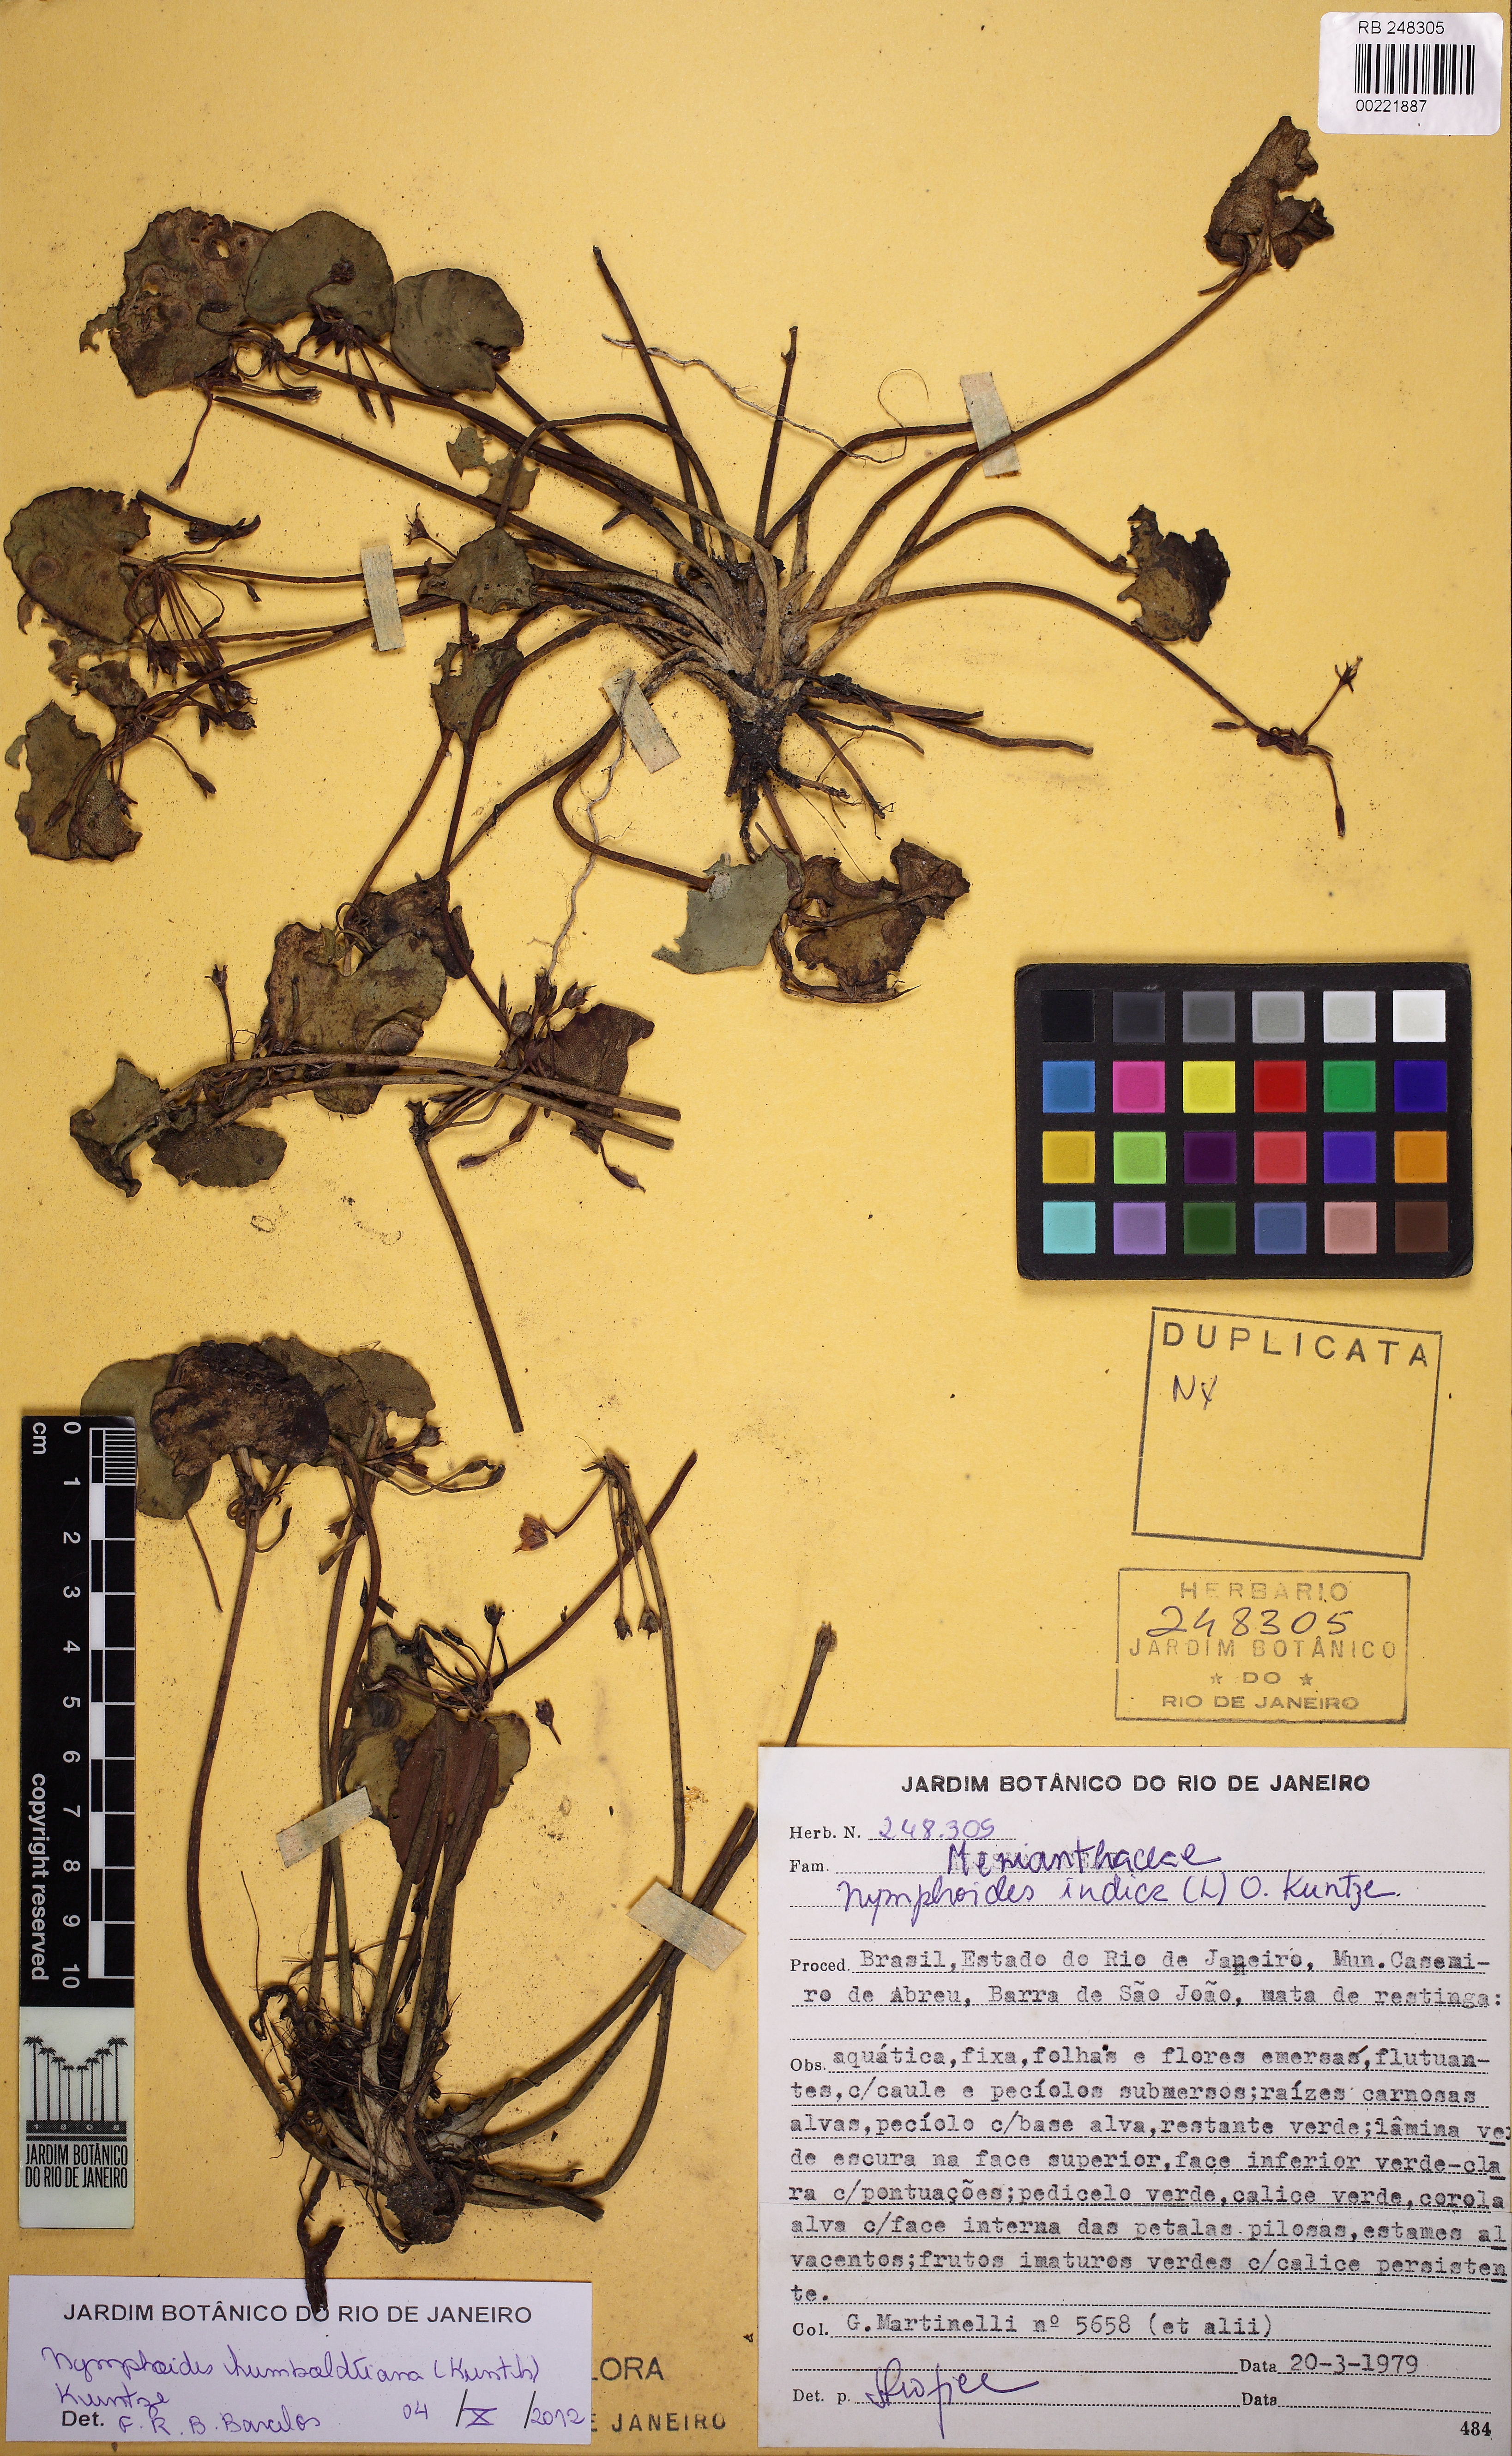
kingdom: Plantae
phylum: Tracheophyta
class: Magnoliopsida
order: Asterales
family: Menyanthaceae
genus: Nymphoides
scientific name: Nymphoides humboldtiana
